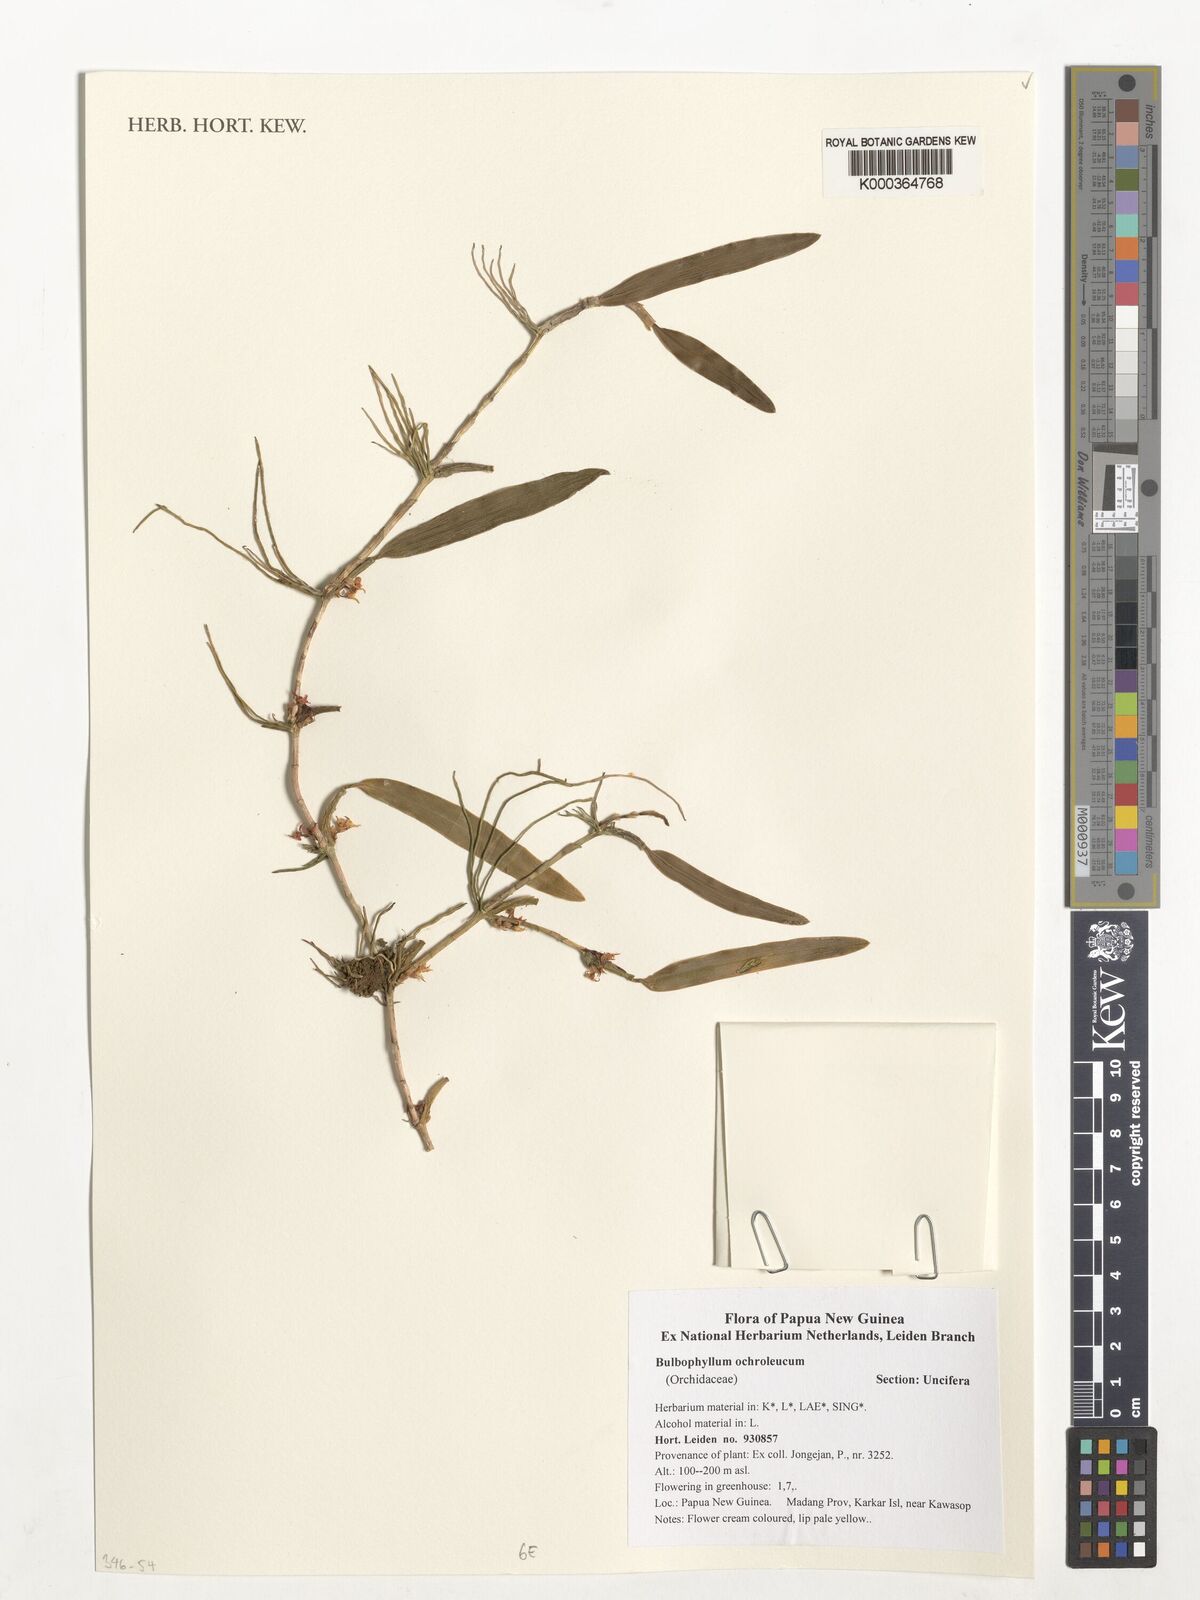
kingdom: Plantae
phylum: Tracheophyta
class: Liliopsida
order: Asparagales
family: Orchidaceae
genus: Bulbophyllum
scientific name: Bulbophyllum ochroleucum
